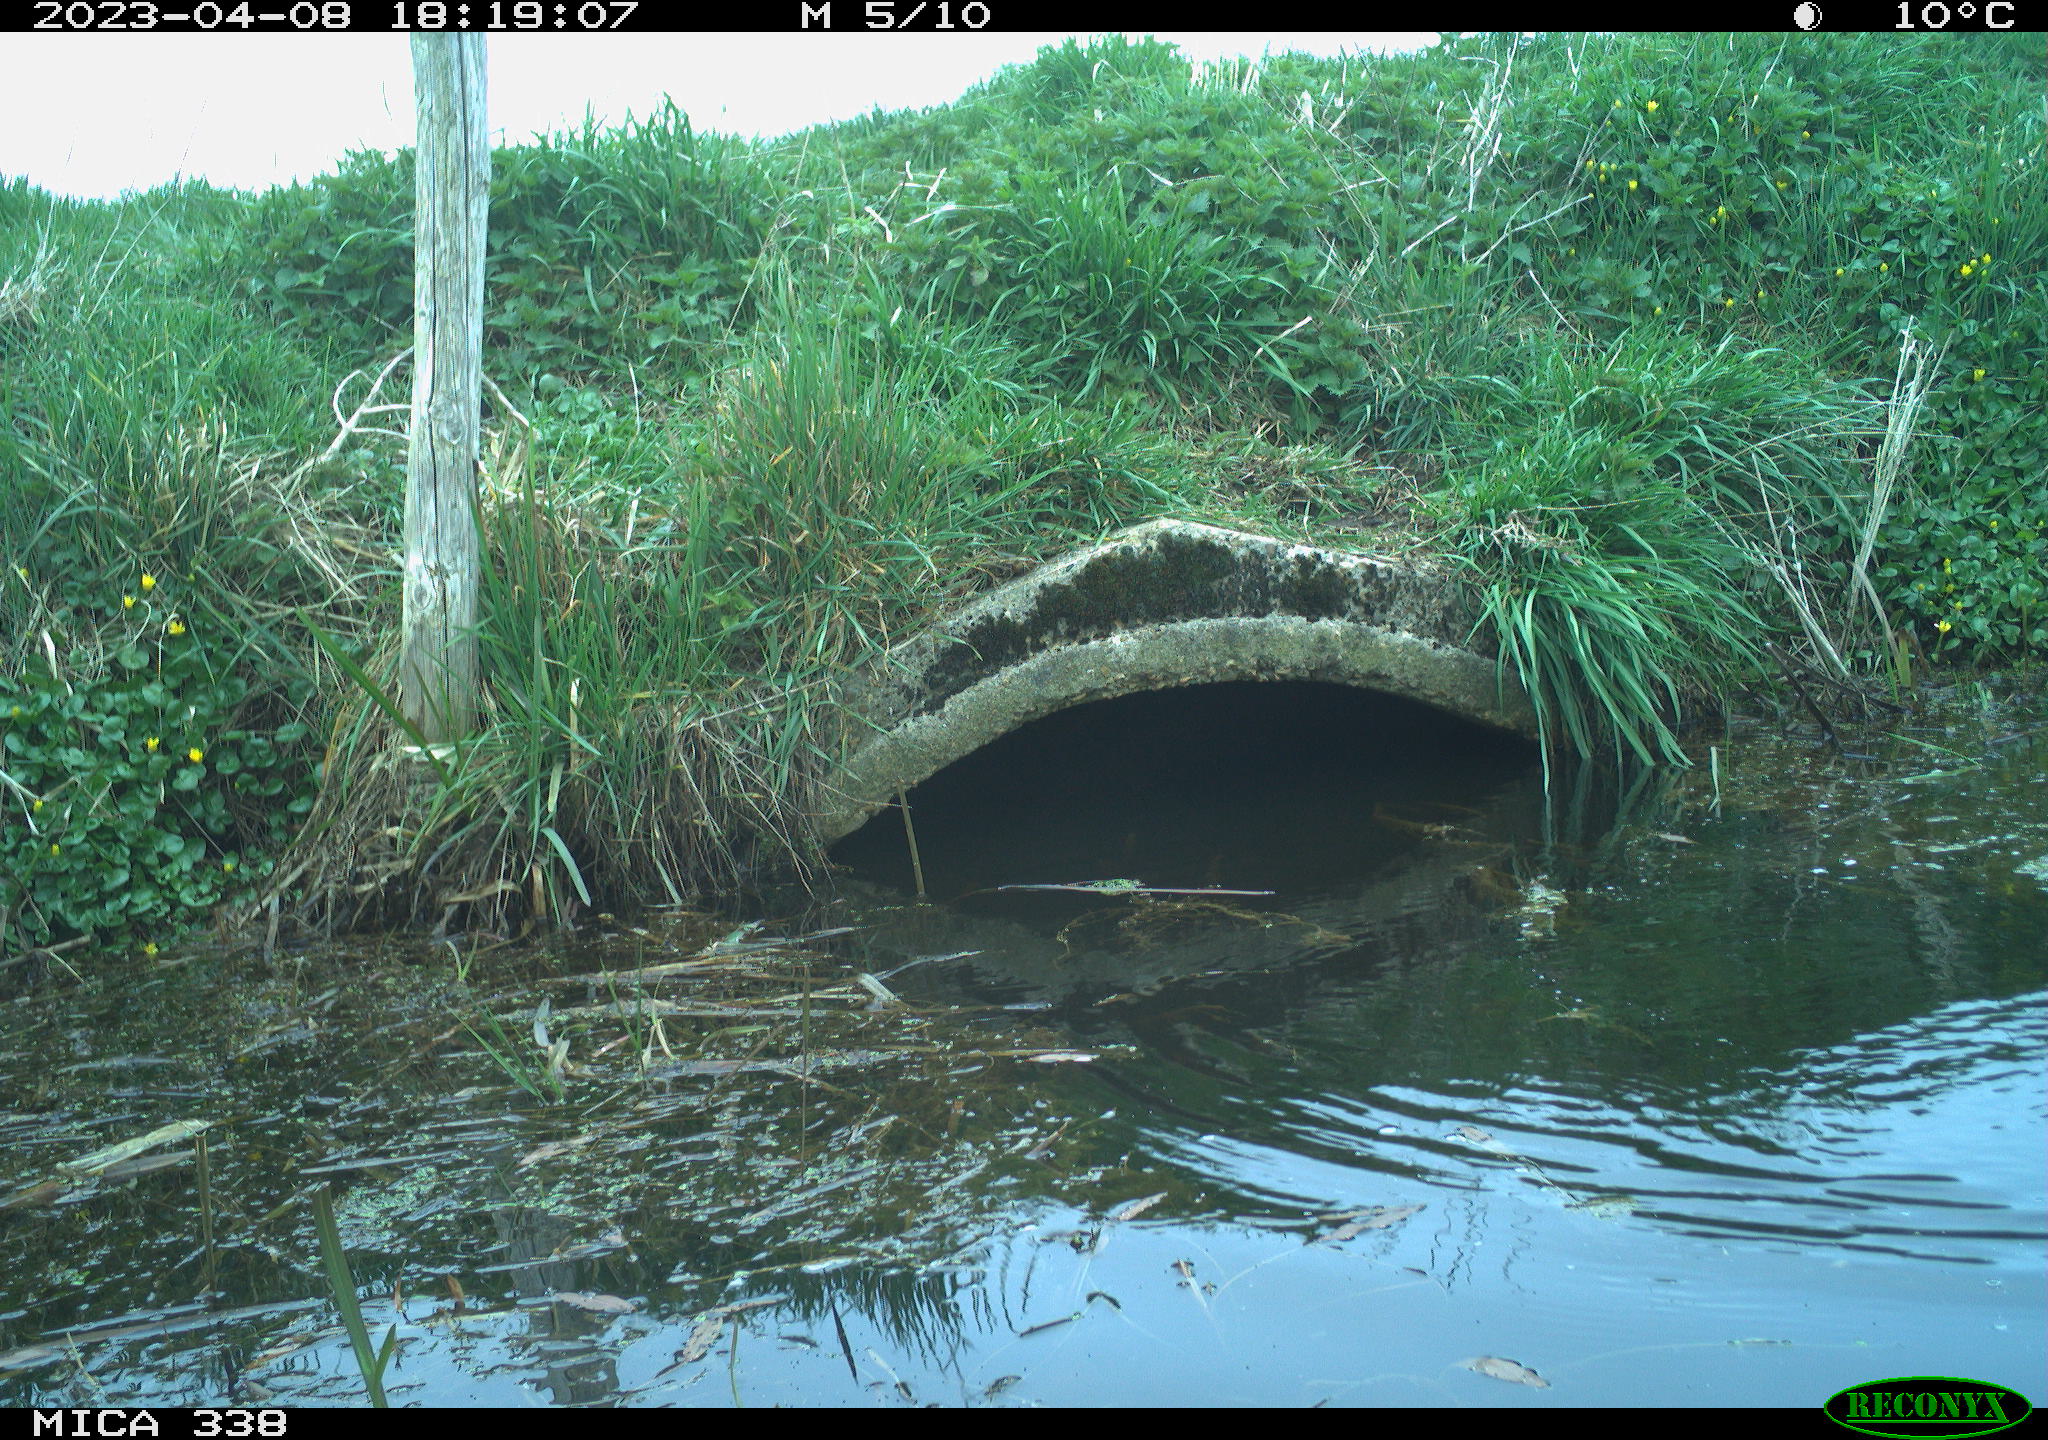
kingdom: Animalia
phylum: Chordata
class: Aves
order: Anseriformes
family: Anatidae
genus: Anas
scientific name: Anas
